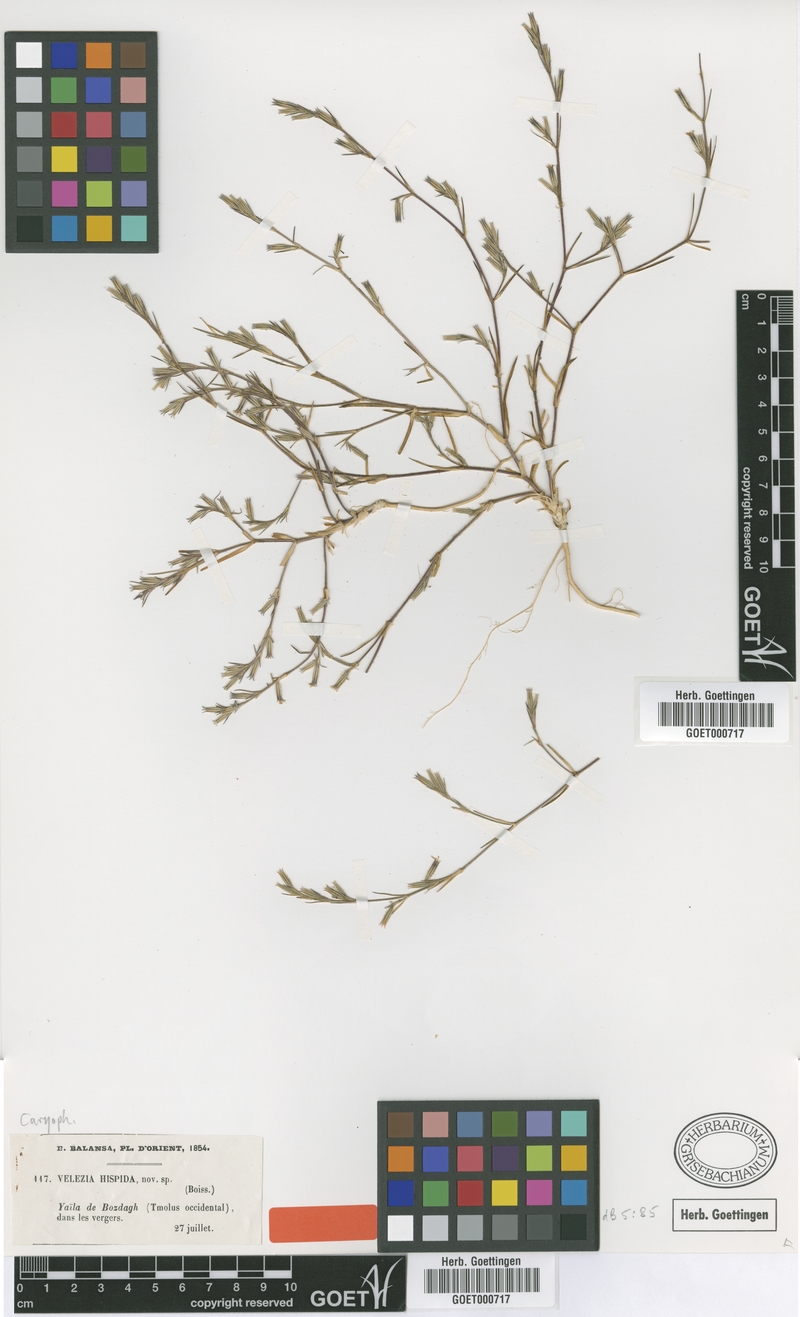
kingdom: Plantae
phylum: Tracheophyta
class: Magnoliopsida
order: Caryophyllales
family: Caryophyllaceae
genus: Dianthus
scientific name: Dianthus hispidus
